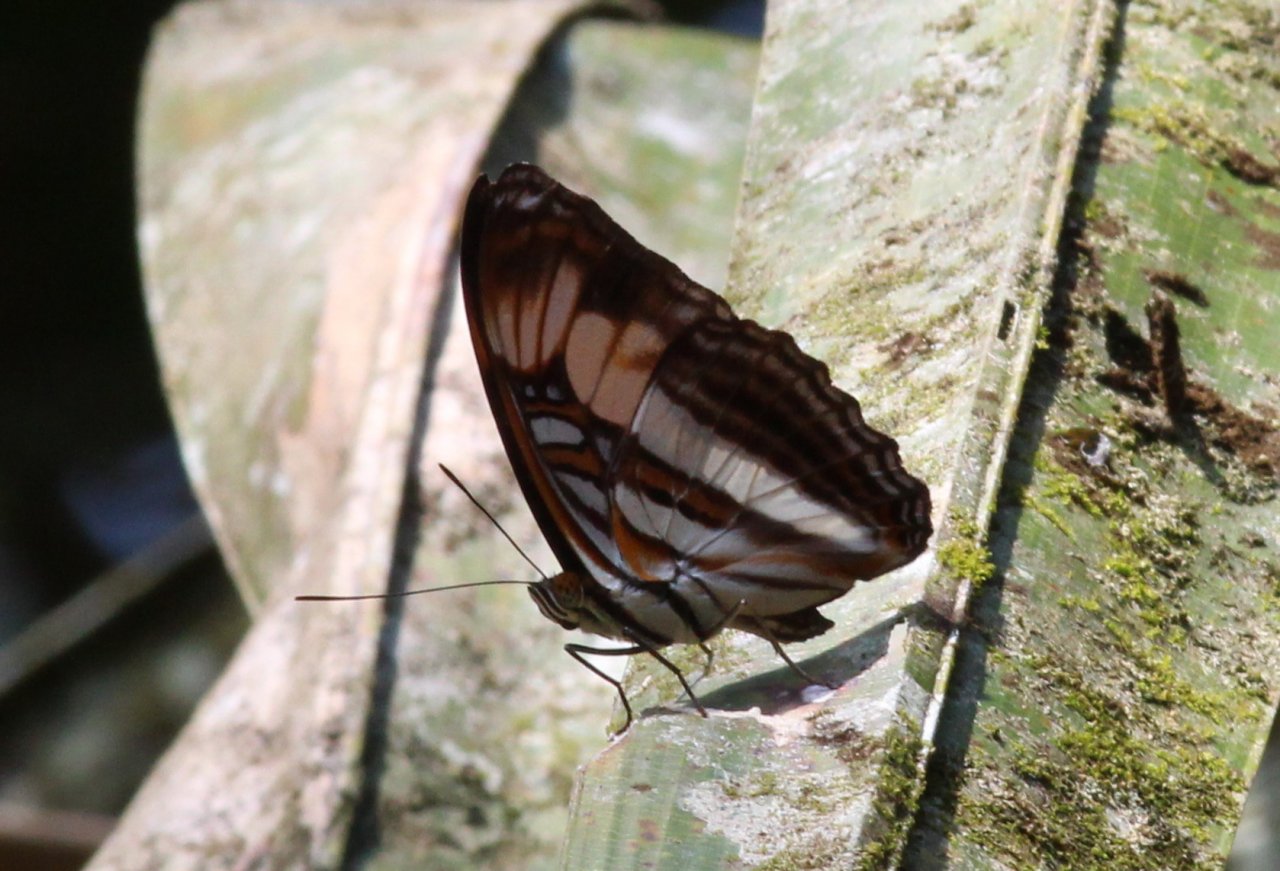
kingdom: Animalia
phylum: Arthropoda
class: Insecta
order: Lepidoptera
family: Nymphalidae
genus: Limenitis
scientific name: Limenitis melona
